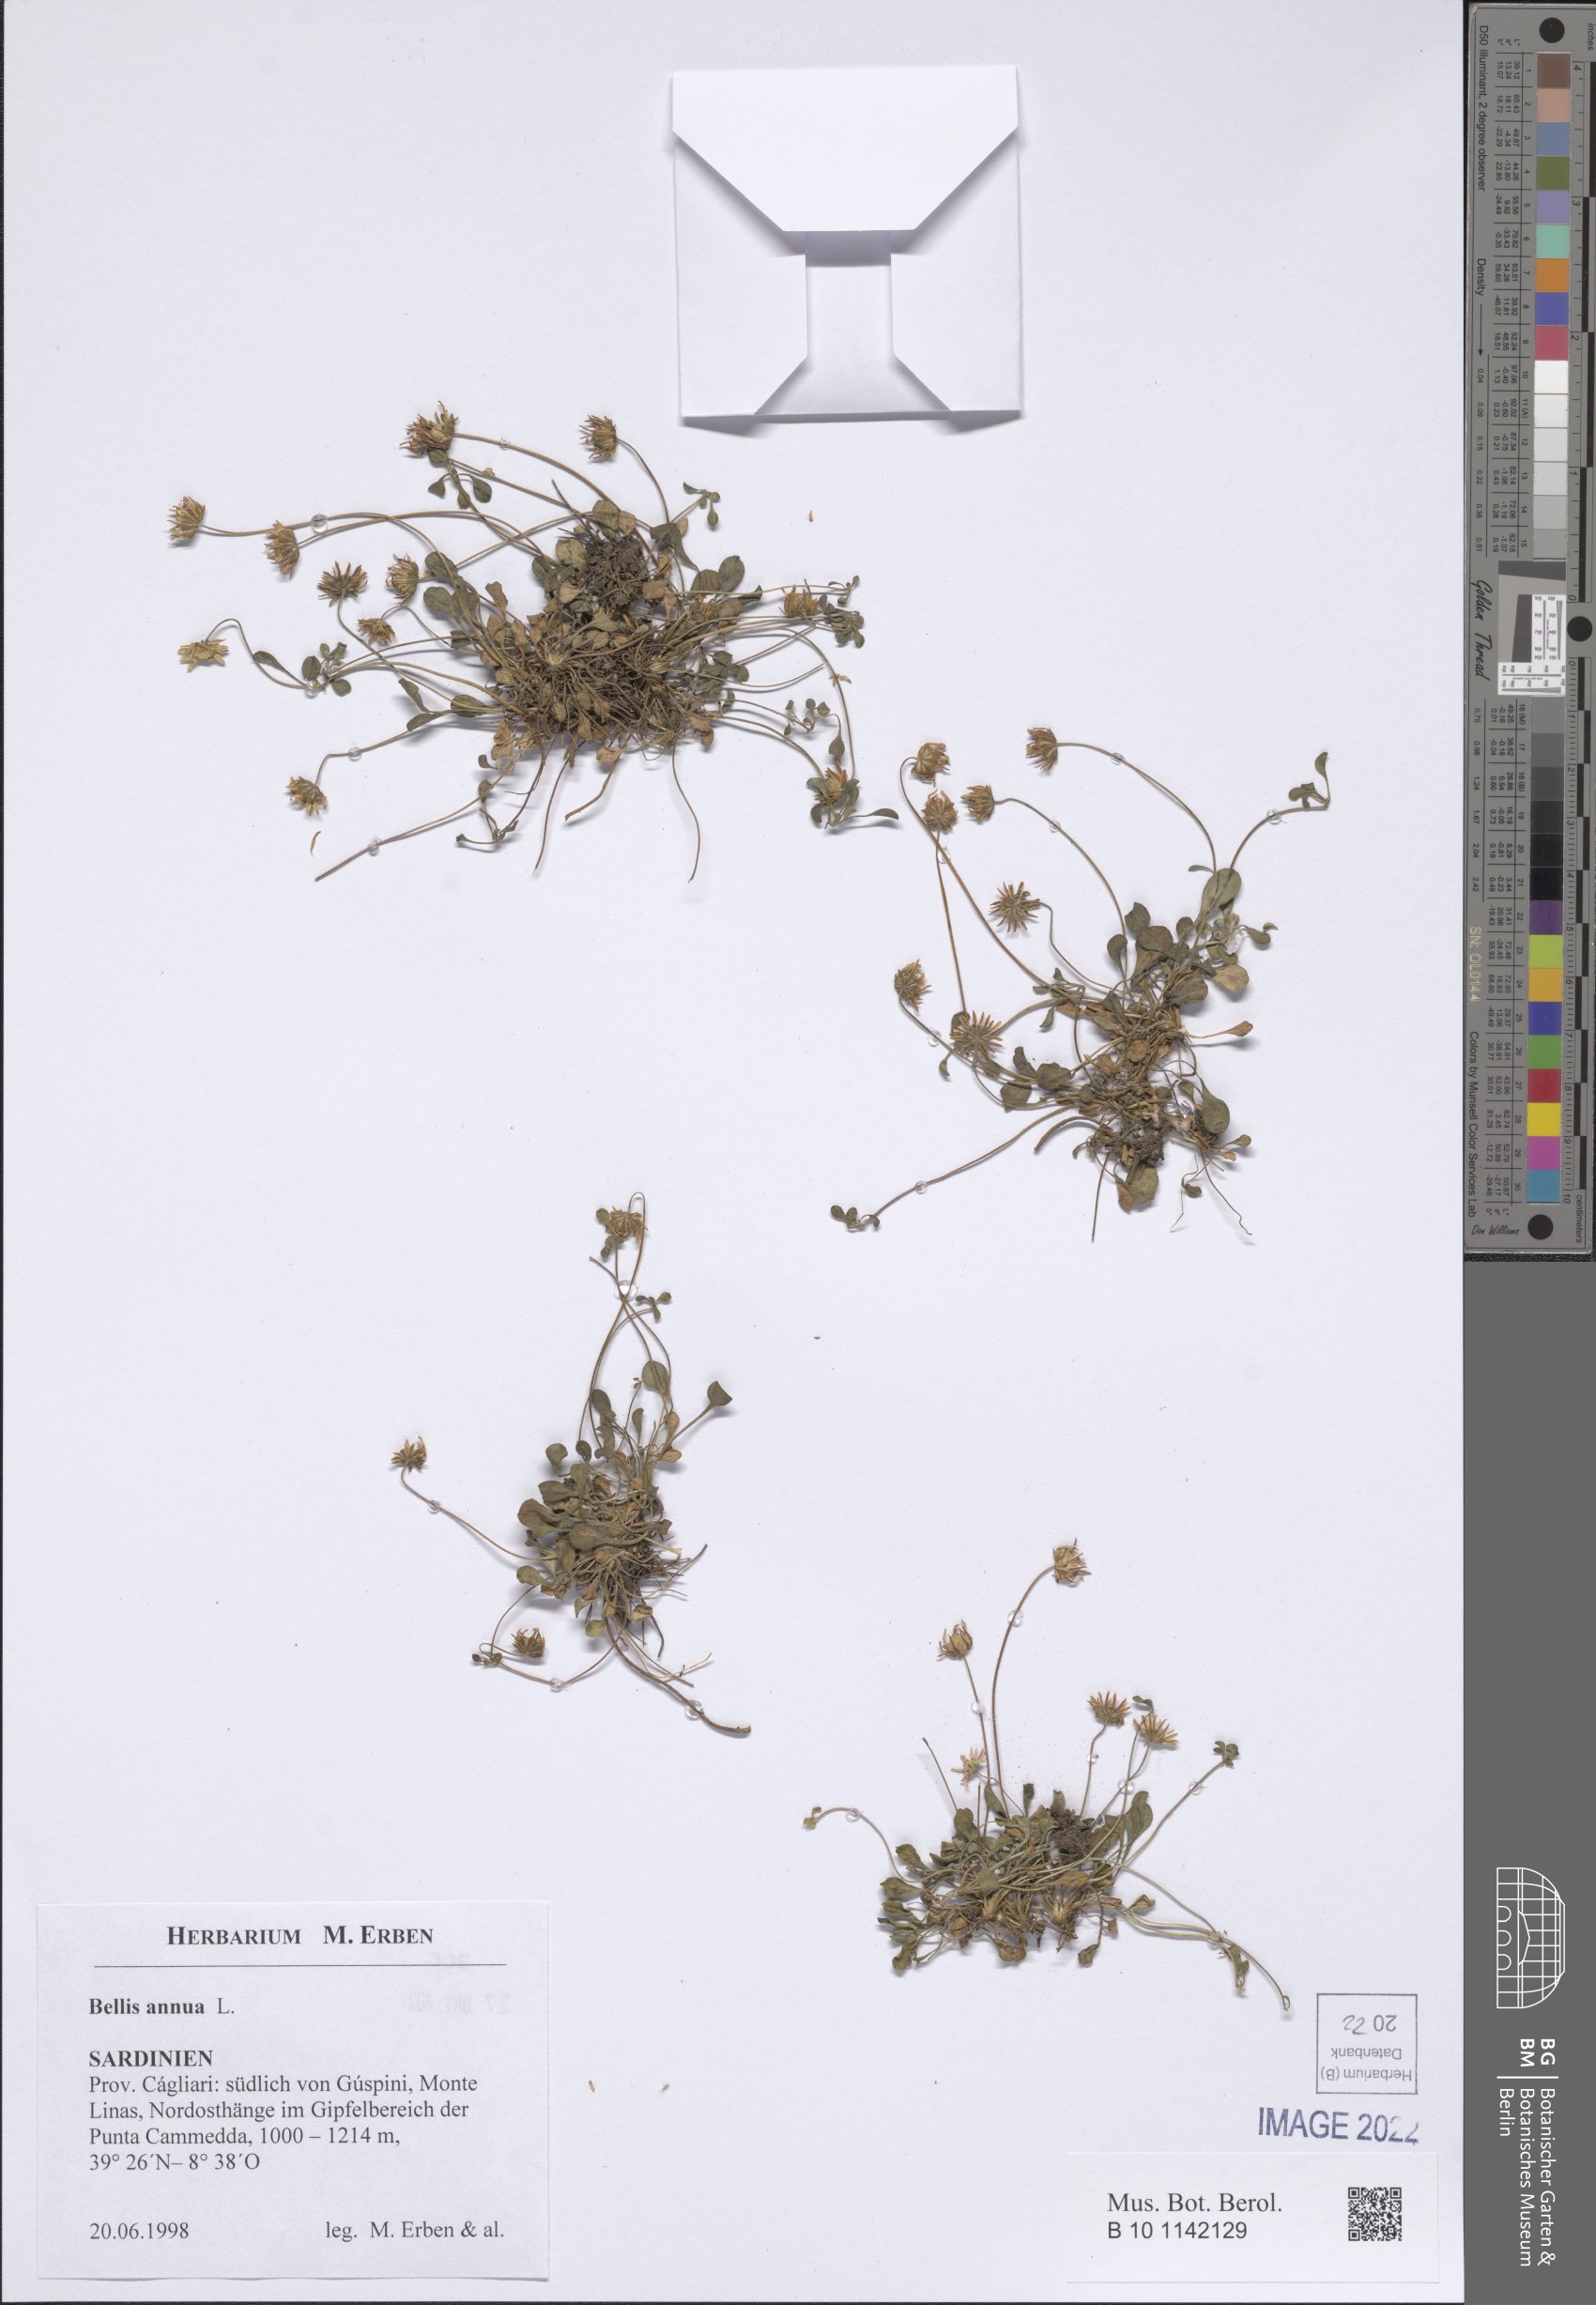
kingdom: Plantae
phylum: Tracheophyta
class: Magnoliopsida
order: Asterales
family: Asteraceae
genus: Bellis
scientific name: Bellis annua
